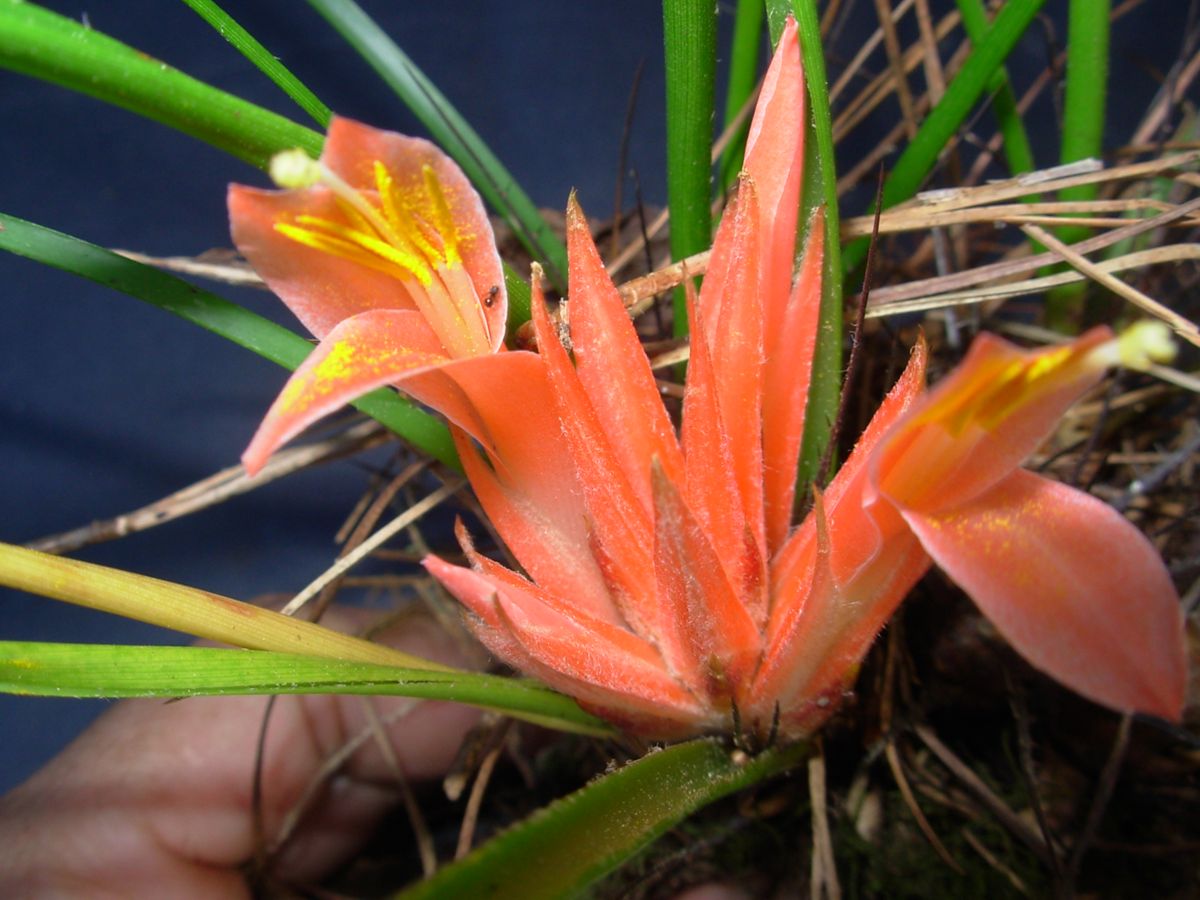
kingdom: Plantae
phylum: Tracheophyta
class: Liliopsida
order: Poales
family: Bromeliaceae
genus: Pitcairnia
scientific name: Pitcairnia heterophylla
